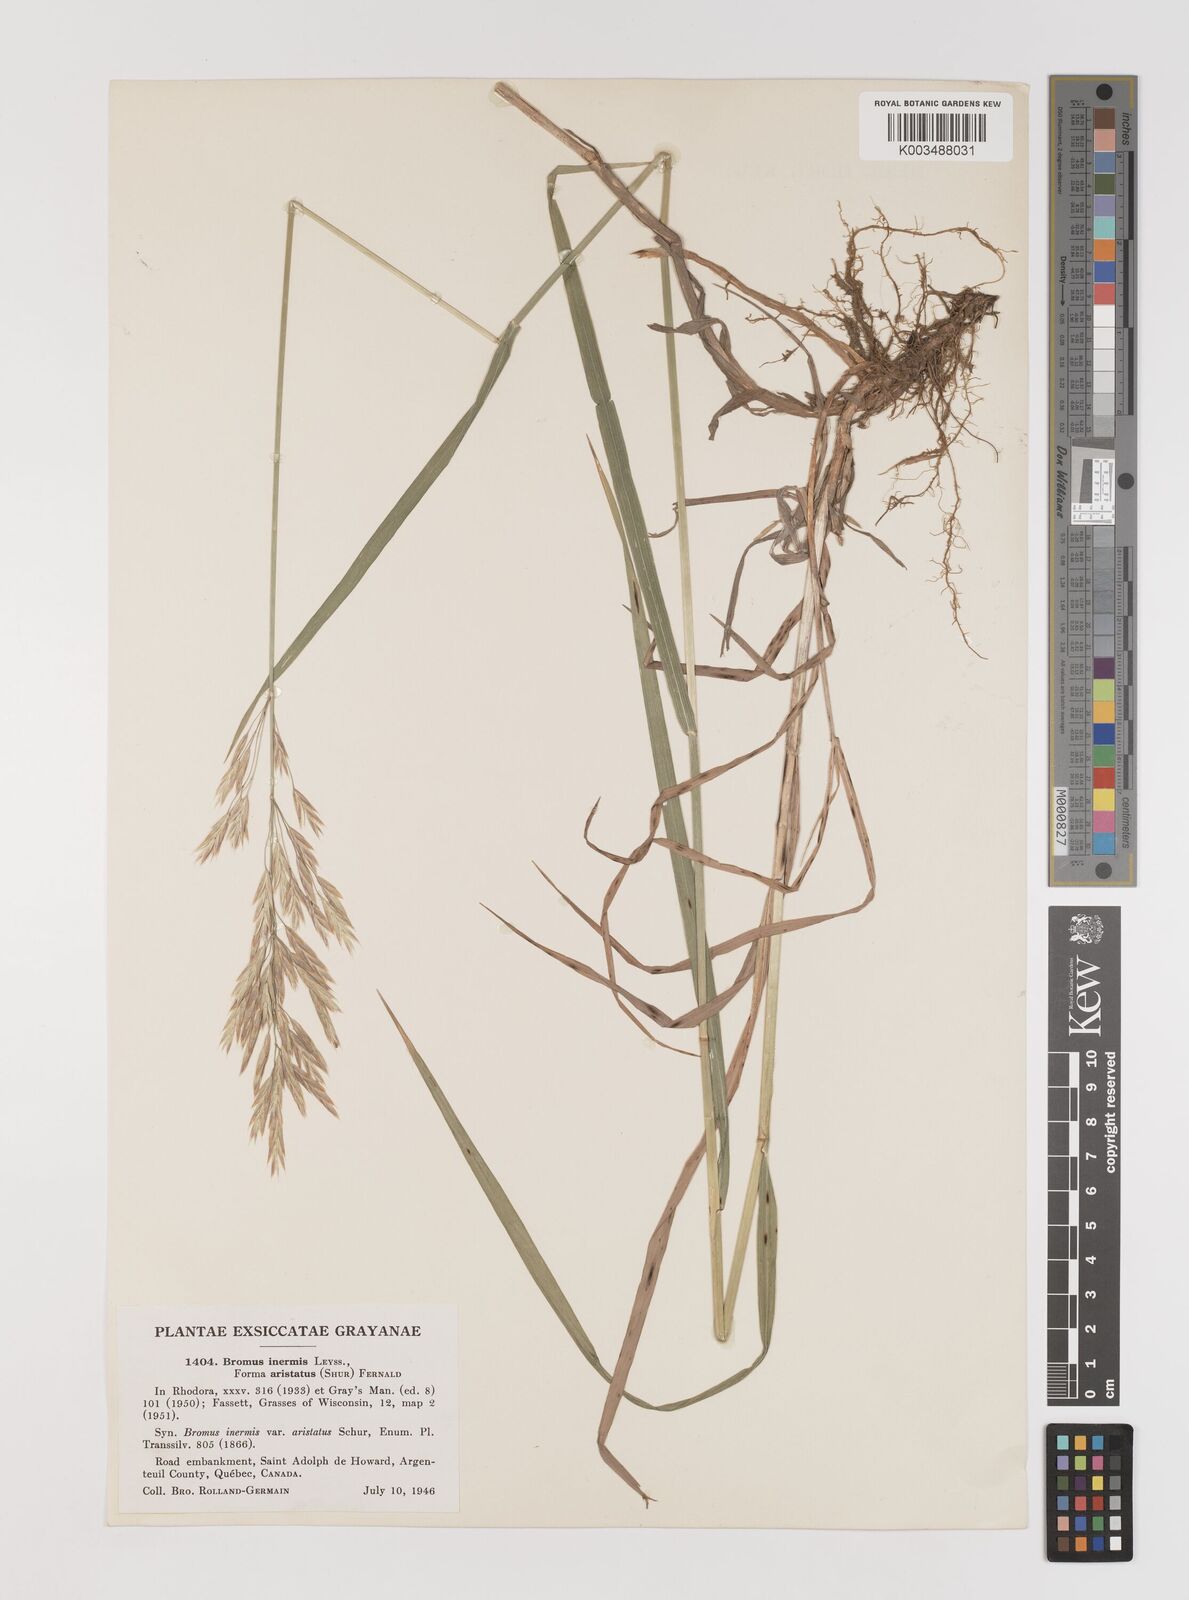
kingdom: Plantae
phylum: Tracheophyta
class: Liliopsida
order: Poales
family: Poaceae
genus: Bromus
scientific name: Bromus inermis
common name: Smooth brome
